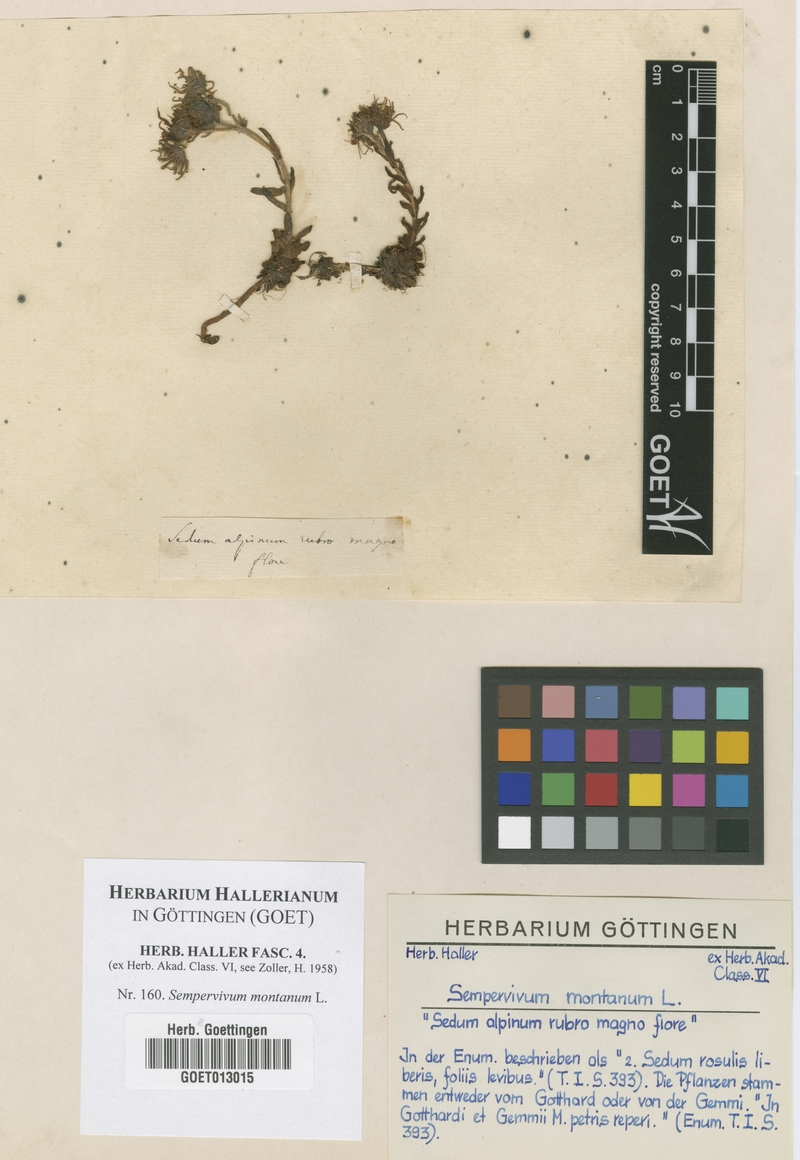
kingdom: Plantae
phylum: Tracheophyta
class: Magnoliopsida
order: Saxifragales
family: Crassulaceae
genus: Sempervivum
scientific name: Sempervivum montanum
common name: Mountain house-leek
